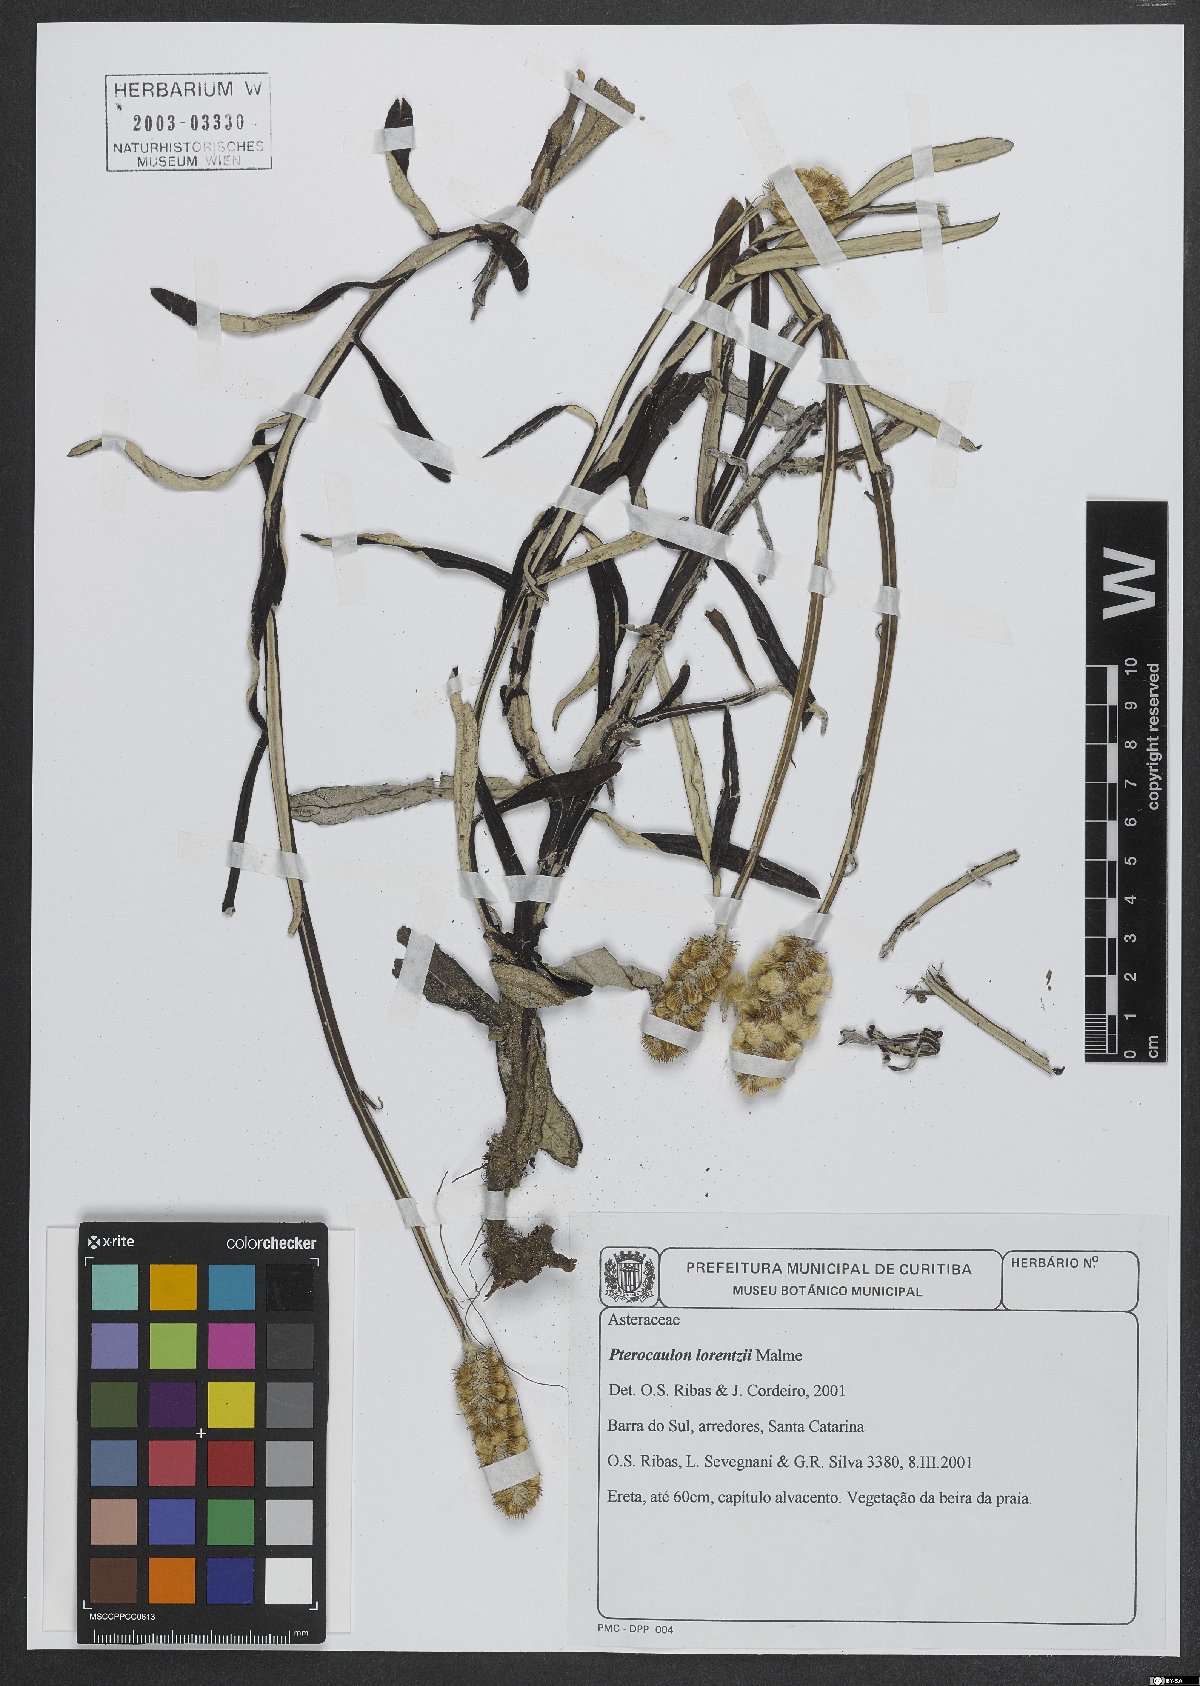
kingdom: Plantae
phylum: Tracheophyta
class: Magnoliopsida
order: Asterales
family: Asteraceae
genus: Pterocaulon
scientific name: Pterocaulon lorentzii
